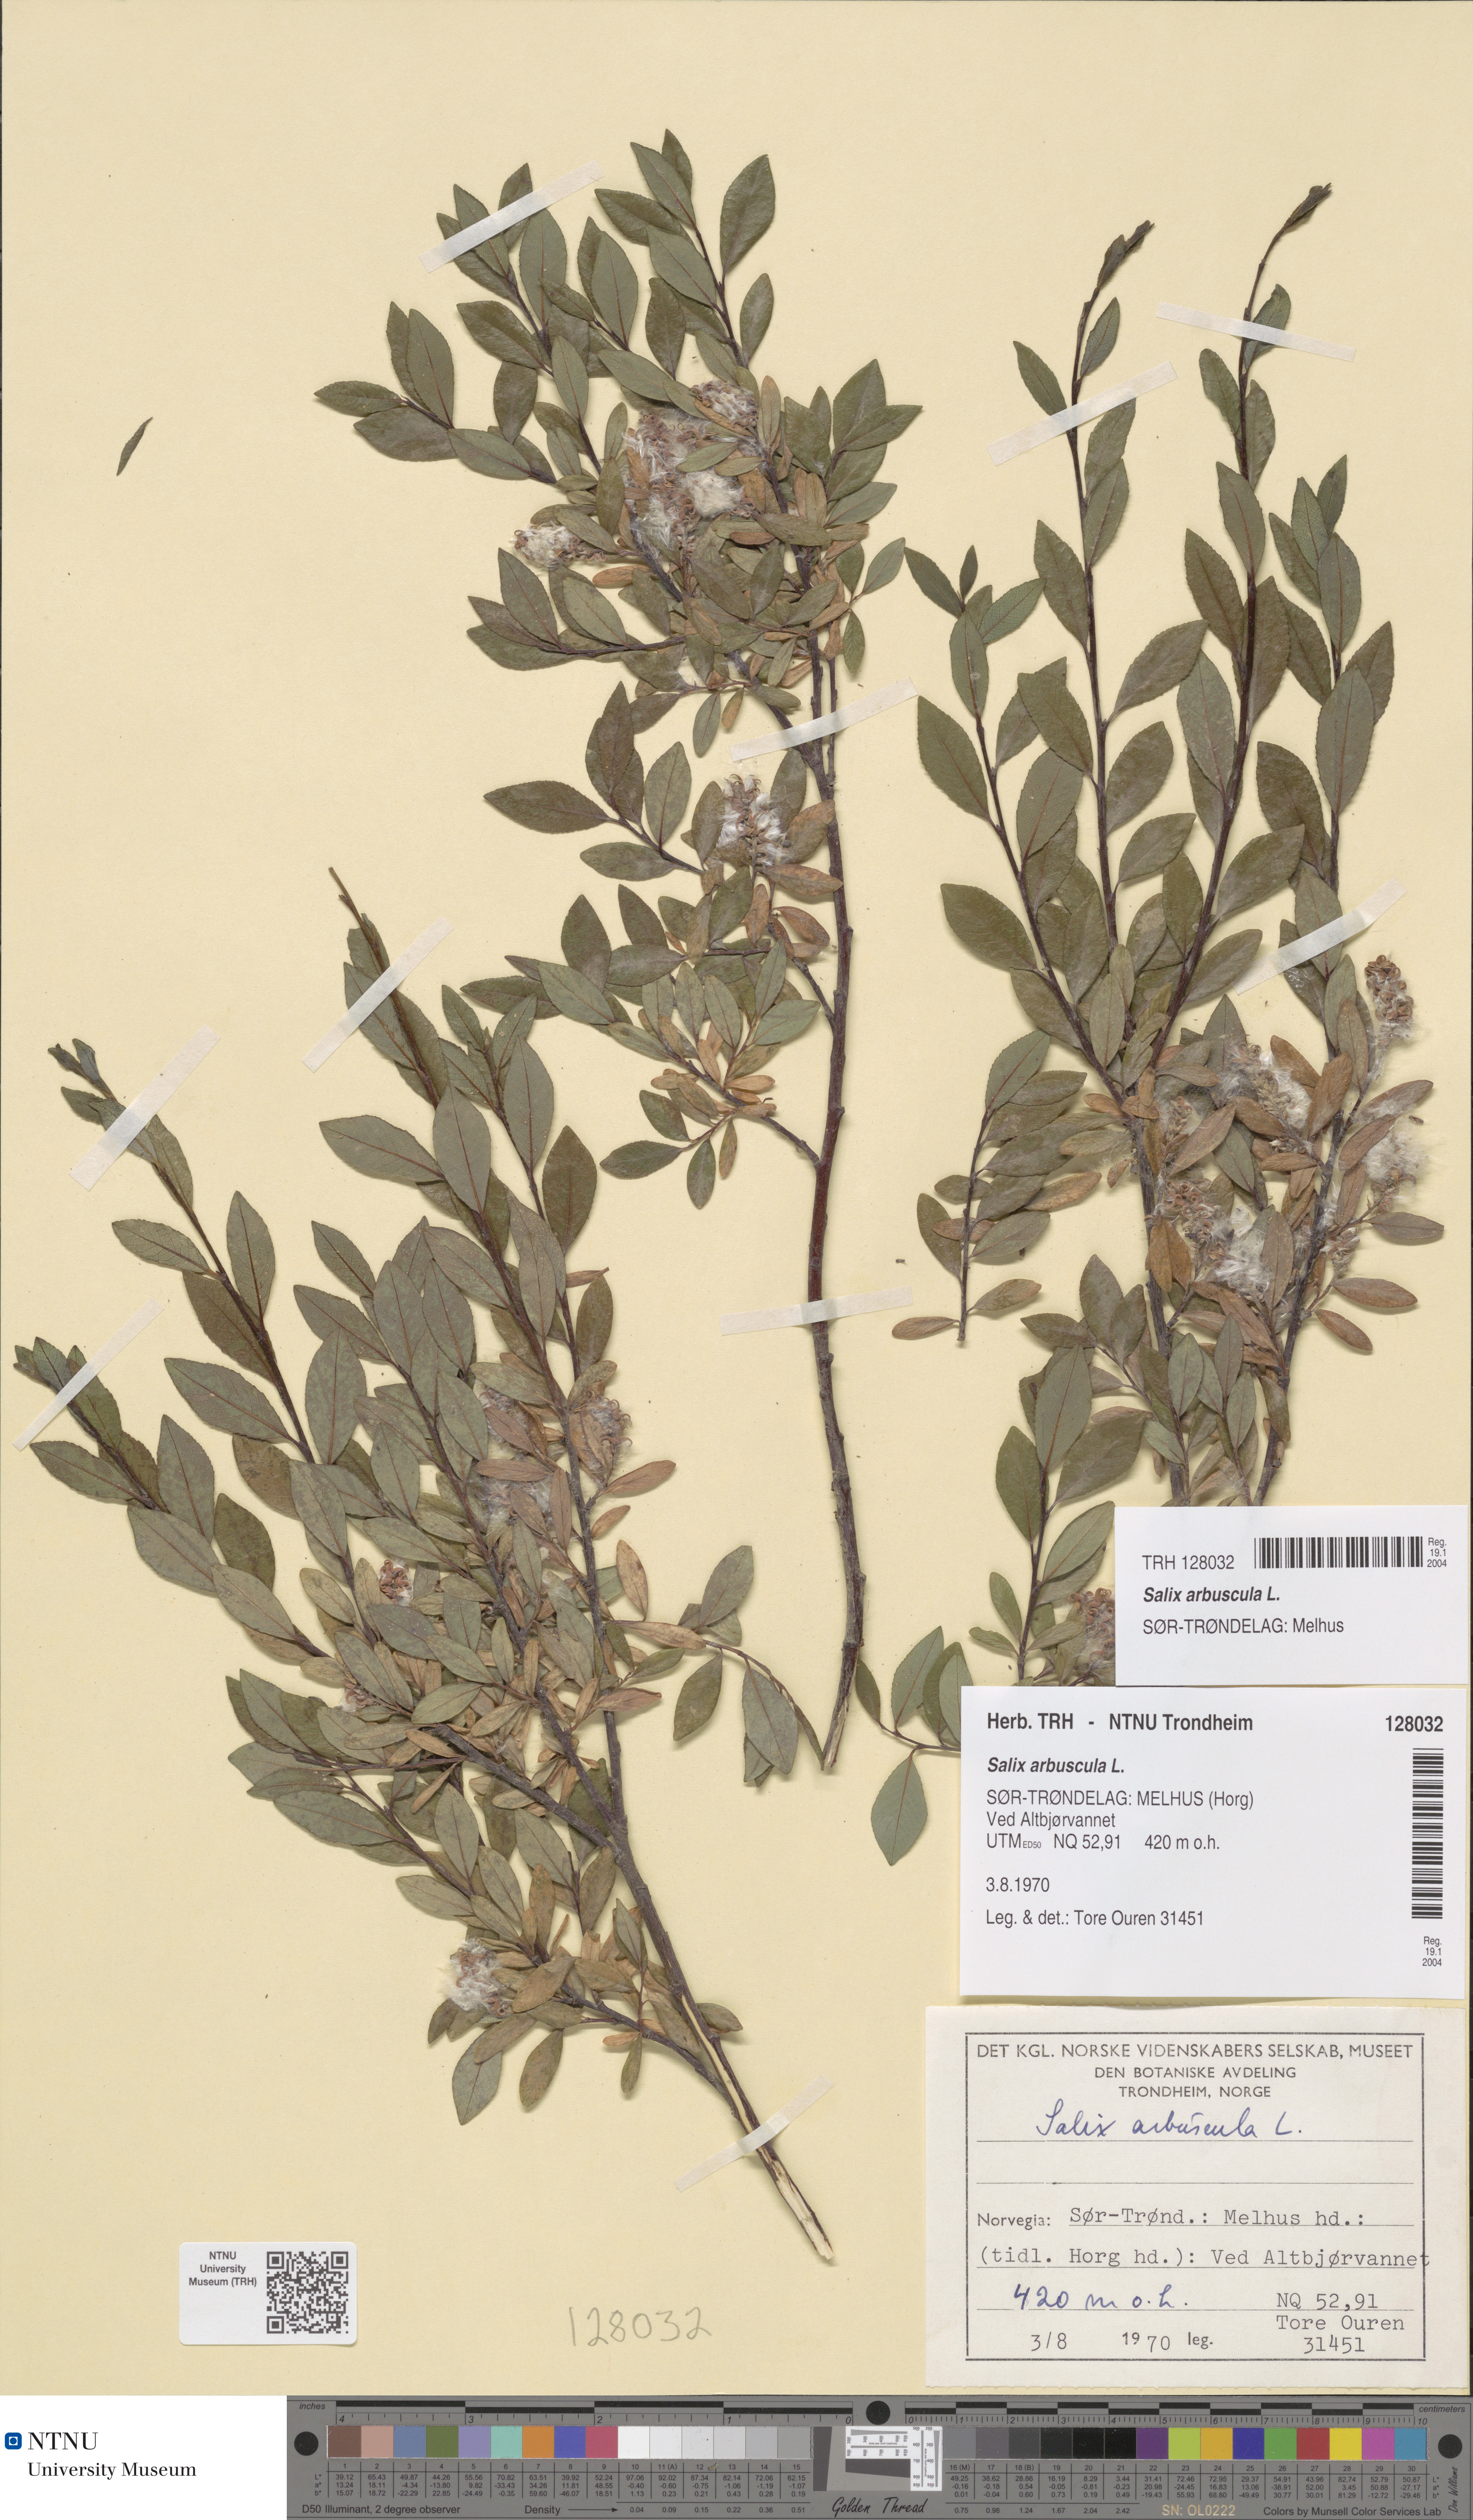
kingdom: Plantae
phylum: Tracheophyta
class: Magnoliopsida
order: Malpighiales
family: Salicaceae
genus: Salix
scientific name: Salix arbuscula
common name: Mountain willow
